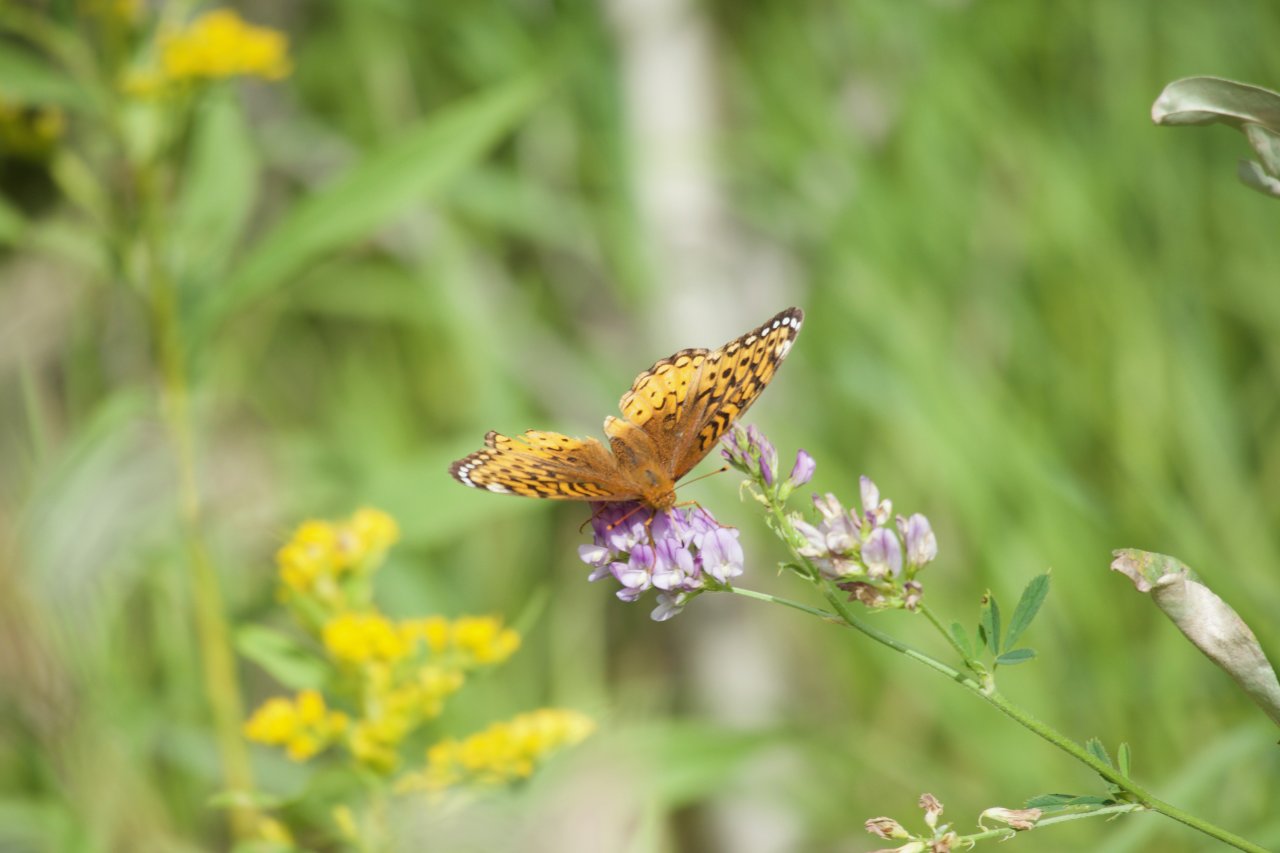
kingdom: Animalia
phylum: Arthropoda
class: Insecta
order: Lepidoptera
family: Nymphalidae
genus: Speyeria
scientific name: Speyeria cybele
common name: Great Spangled Fritillary
